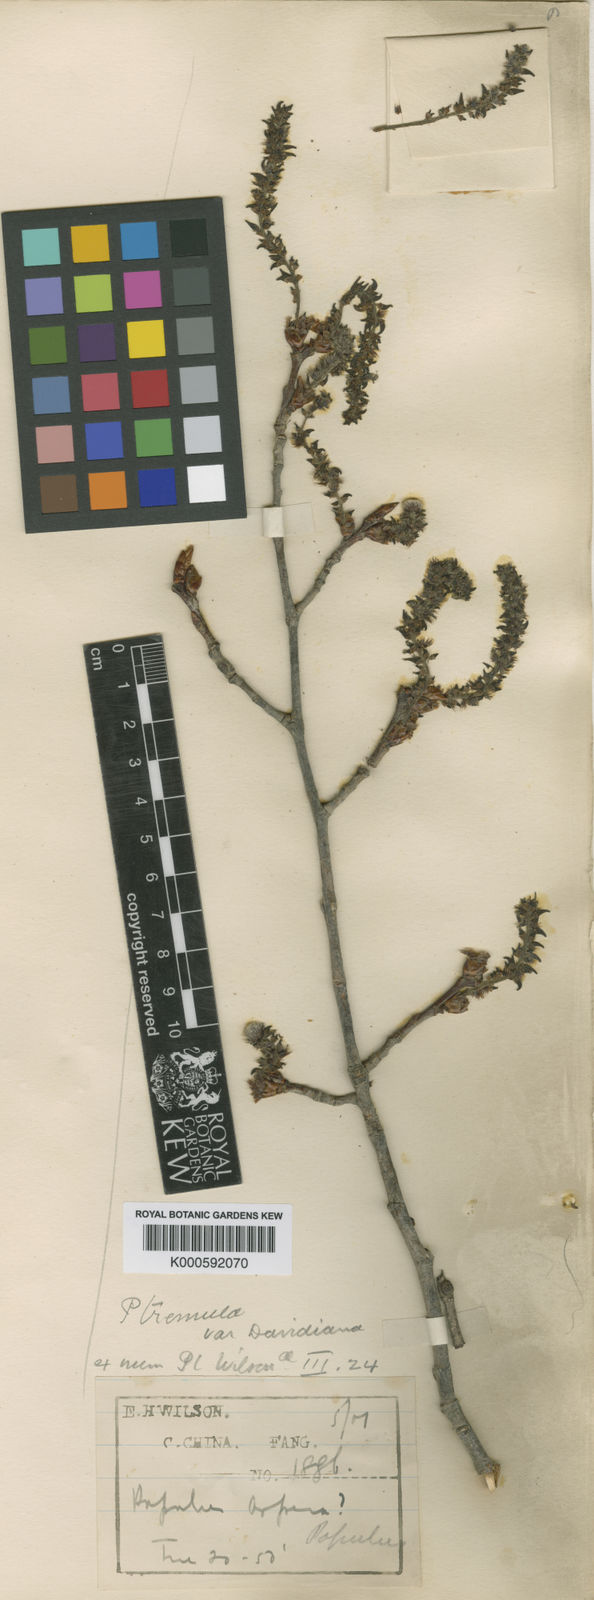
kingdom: Plantae
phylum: Tracheophyta
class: Magnoliopsida
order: Malpighiales
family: Salicaceae
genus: Populus
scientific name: Populus tremula
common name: European aspen
